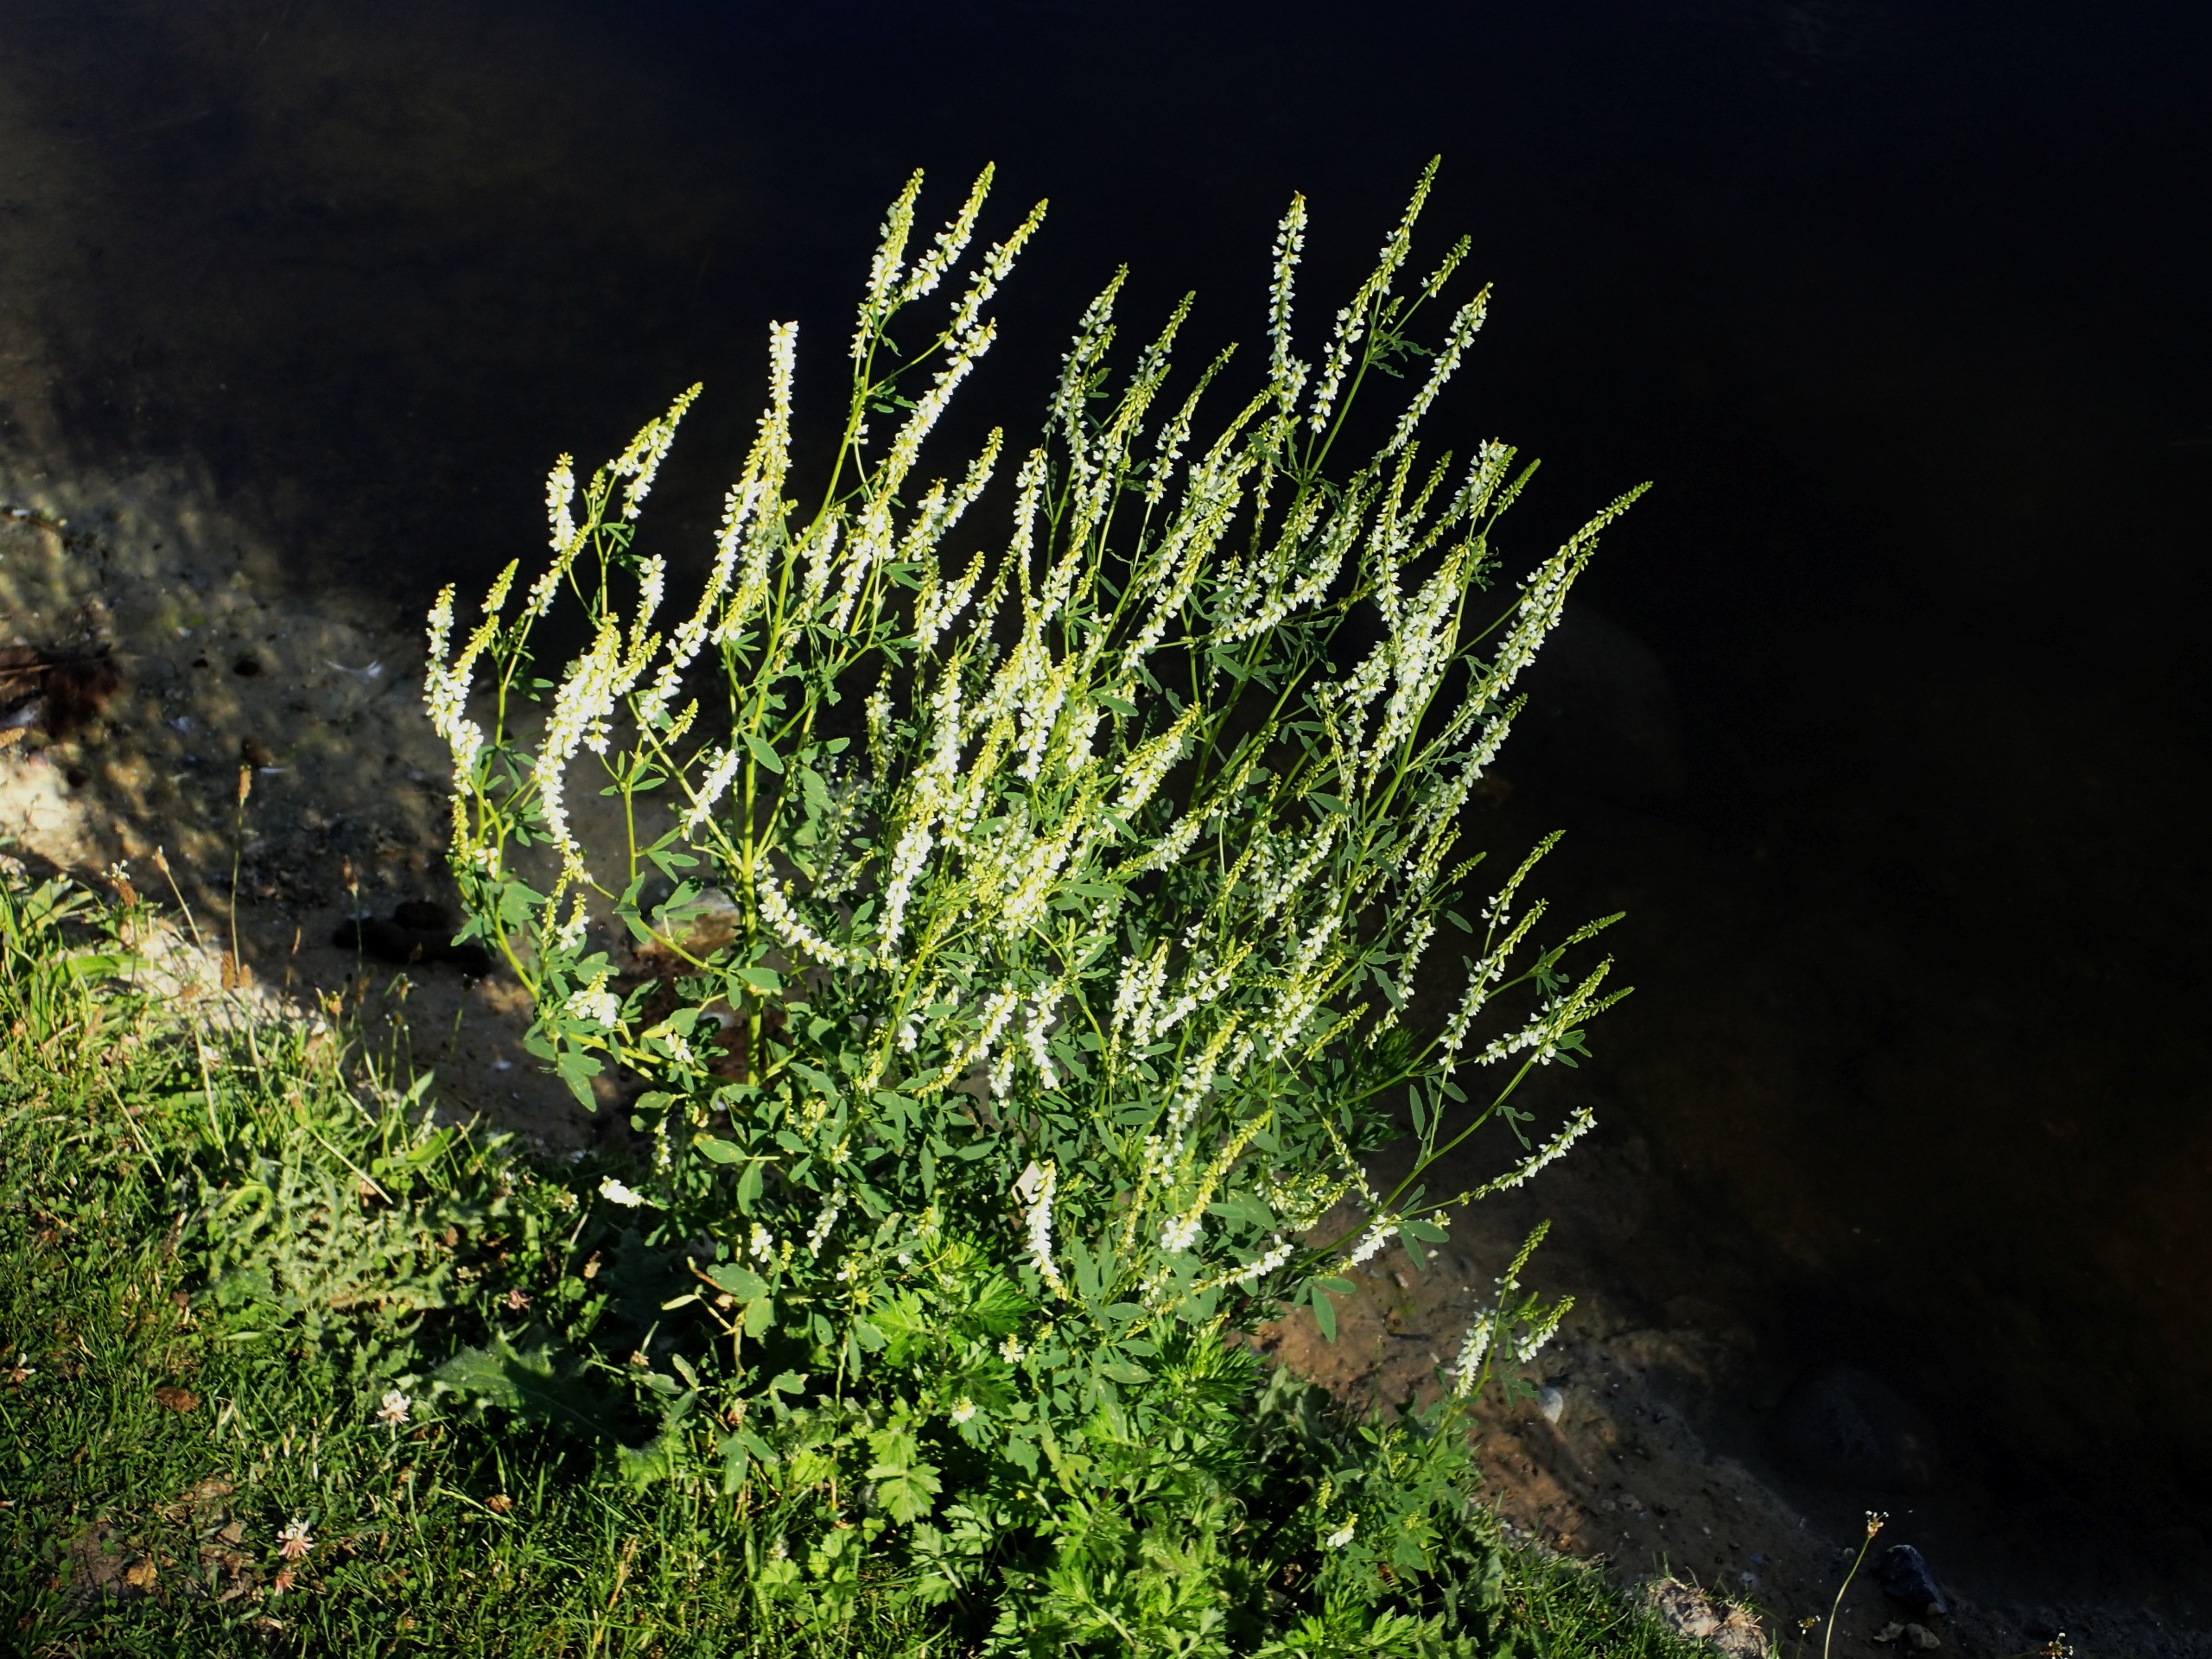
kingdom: Plantae
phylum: Tracheophyta
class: Magnoliopsida
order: Fabales
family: Fabaceae
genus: Melilotus
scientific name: Melilotus albus
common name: Hvid stenkløver
